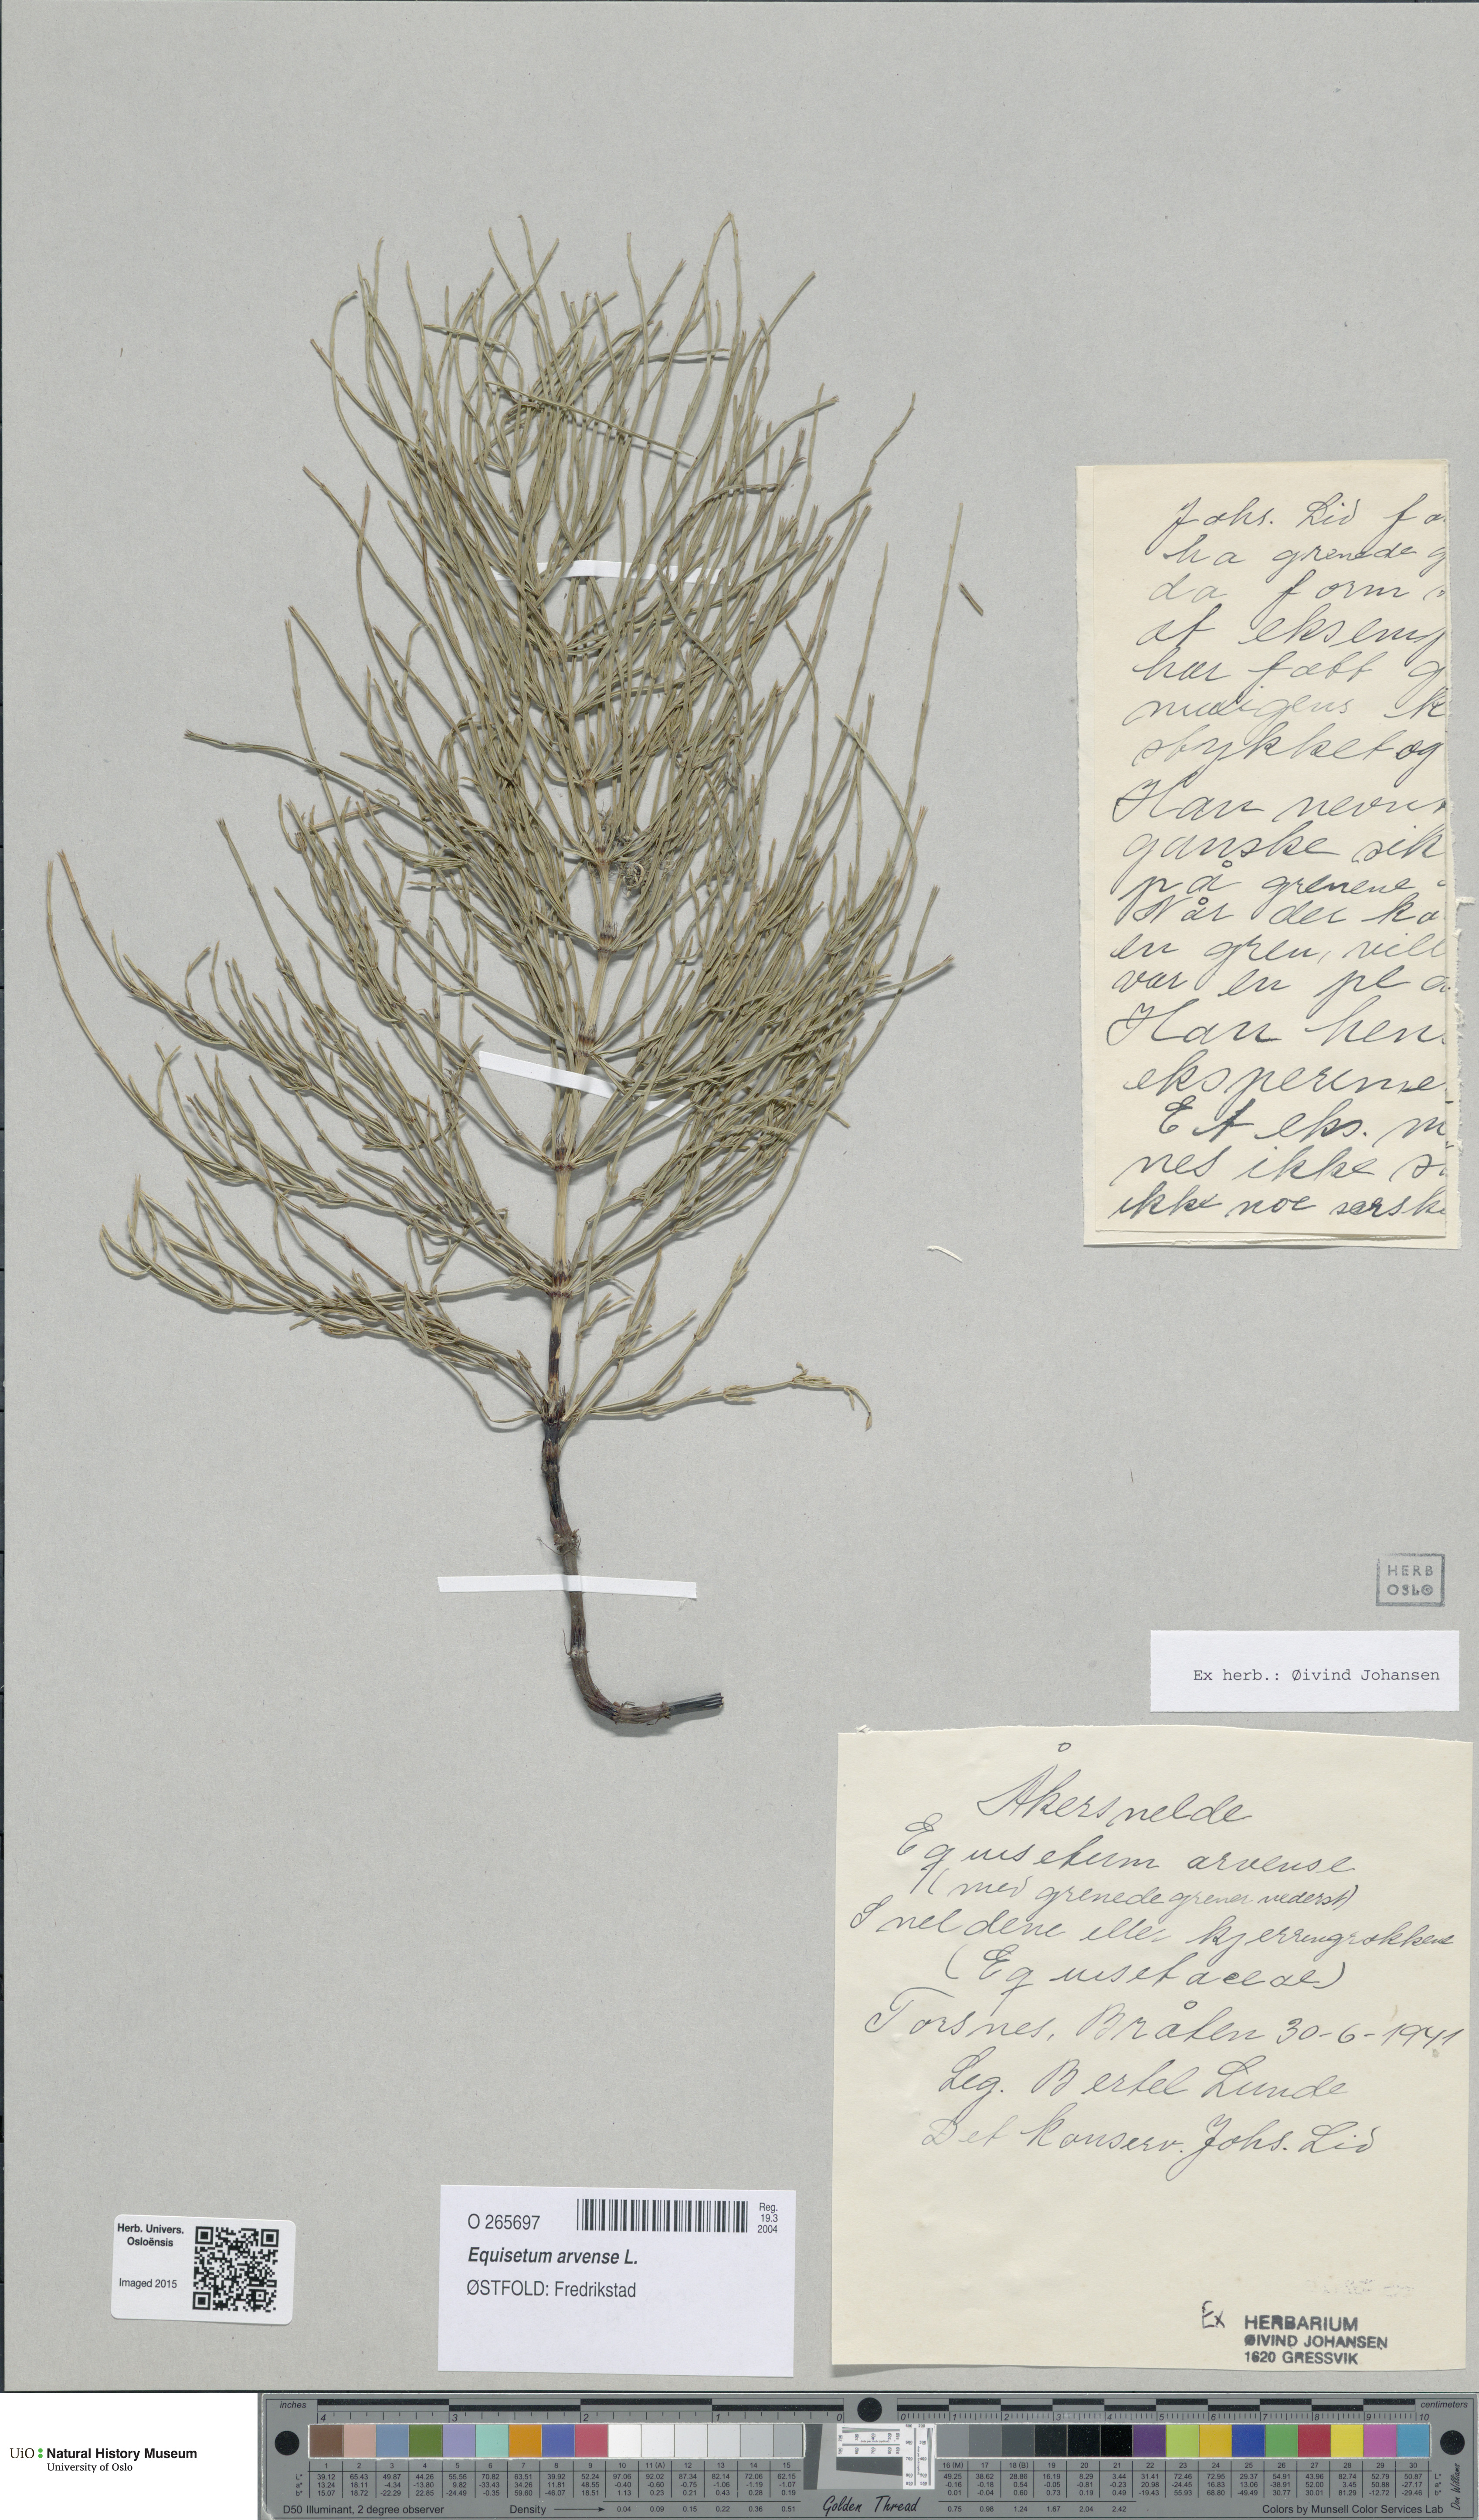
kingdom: Plantae
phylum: Tracheophyta
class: Polypodiopsida
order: Equisetales
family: Equisetaceae
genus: Equisetum
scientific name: Equisetum arvense
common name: Field horsetail
